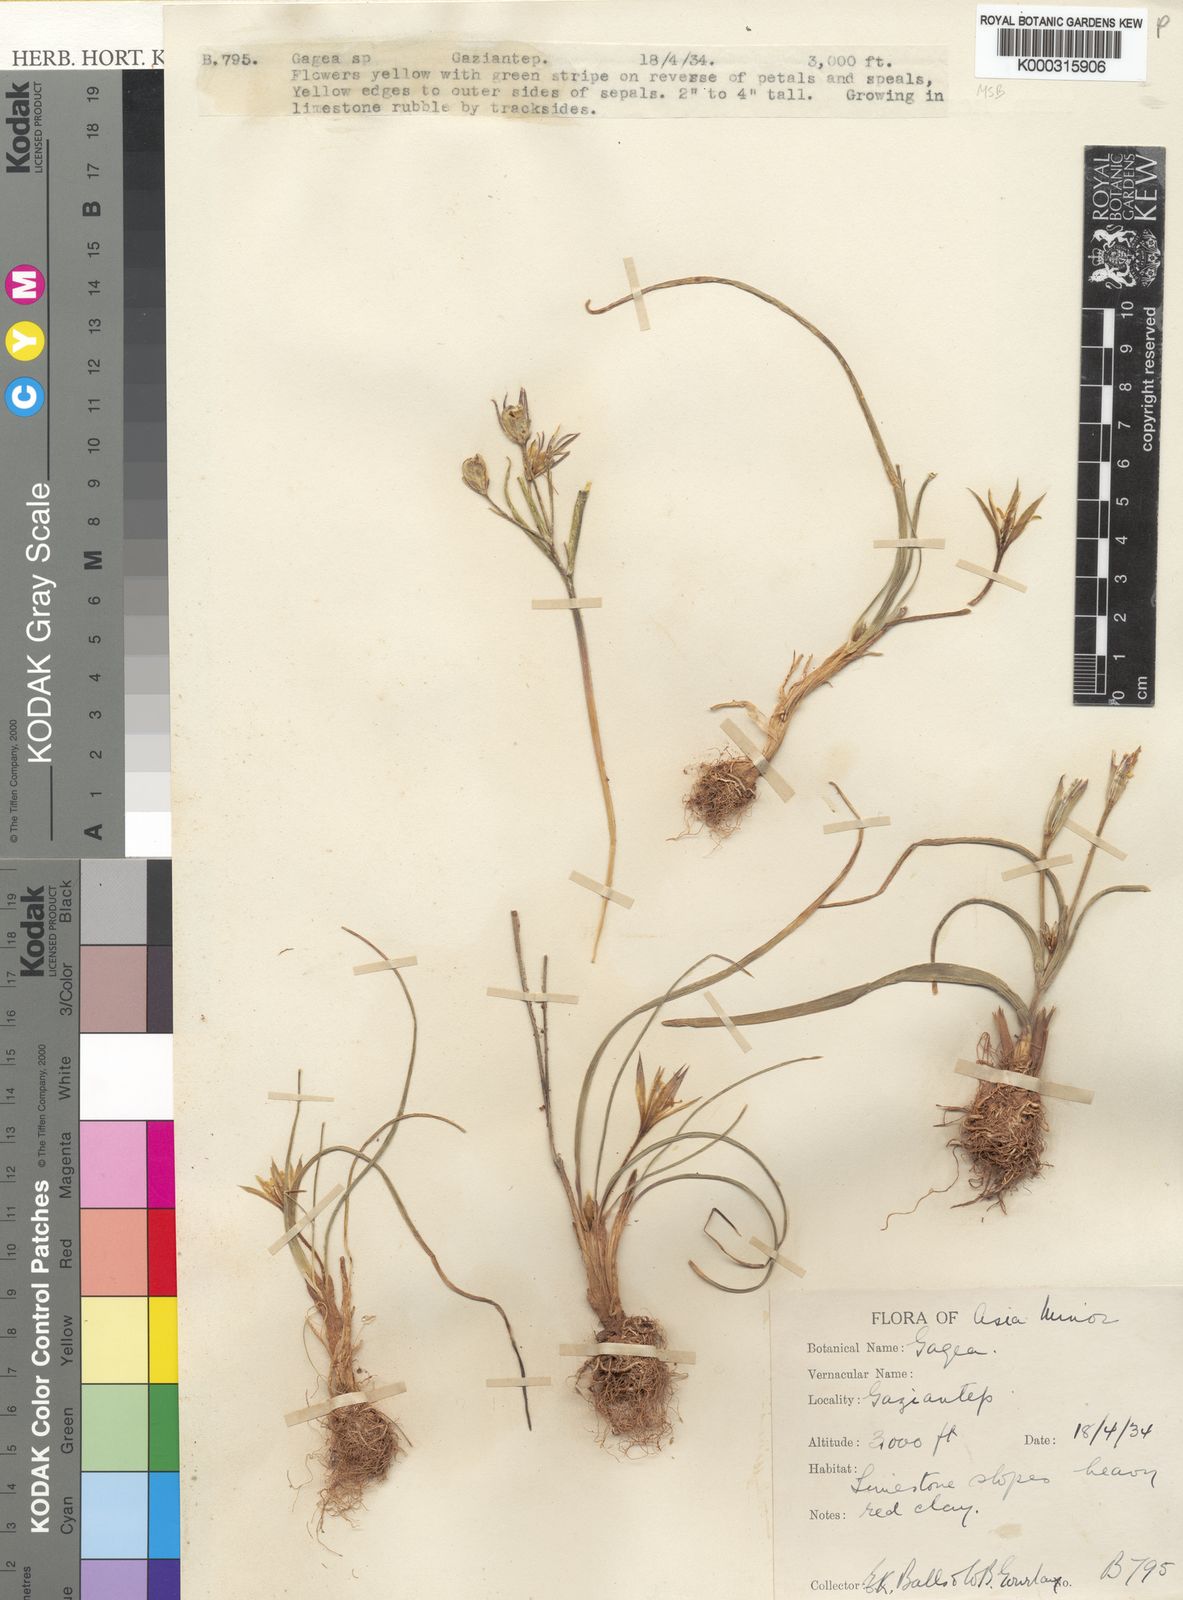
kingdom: Plantae
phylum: Tracheophyta
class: Liliopsida
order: Liliales
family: Liliaceae
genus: Gagea
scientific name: Gagea dayana
